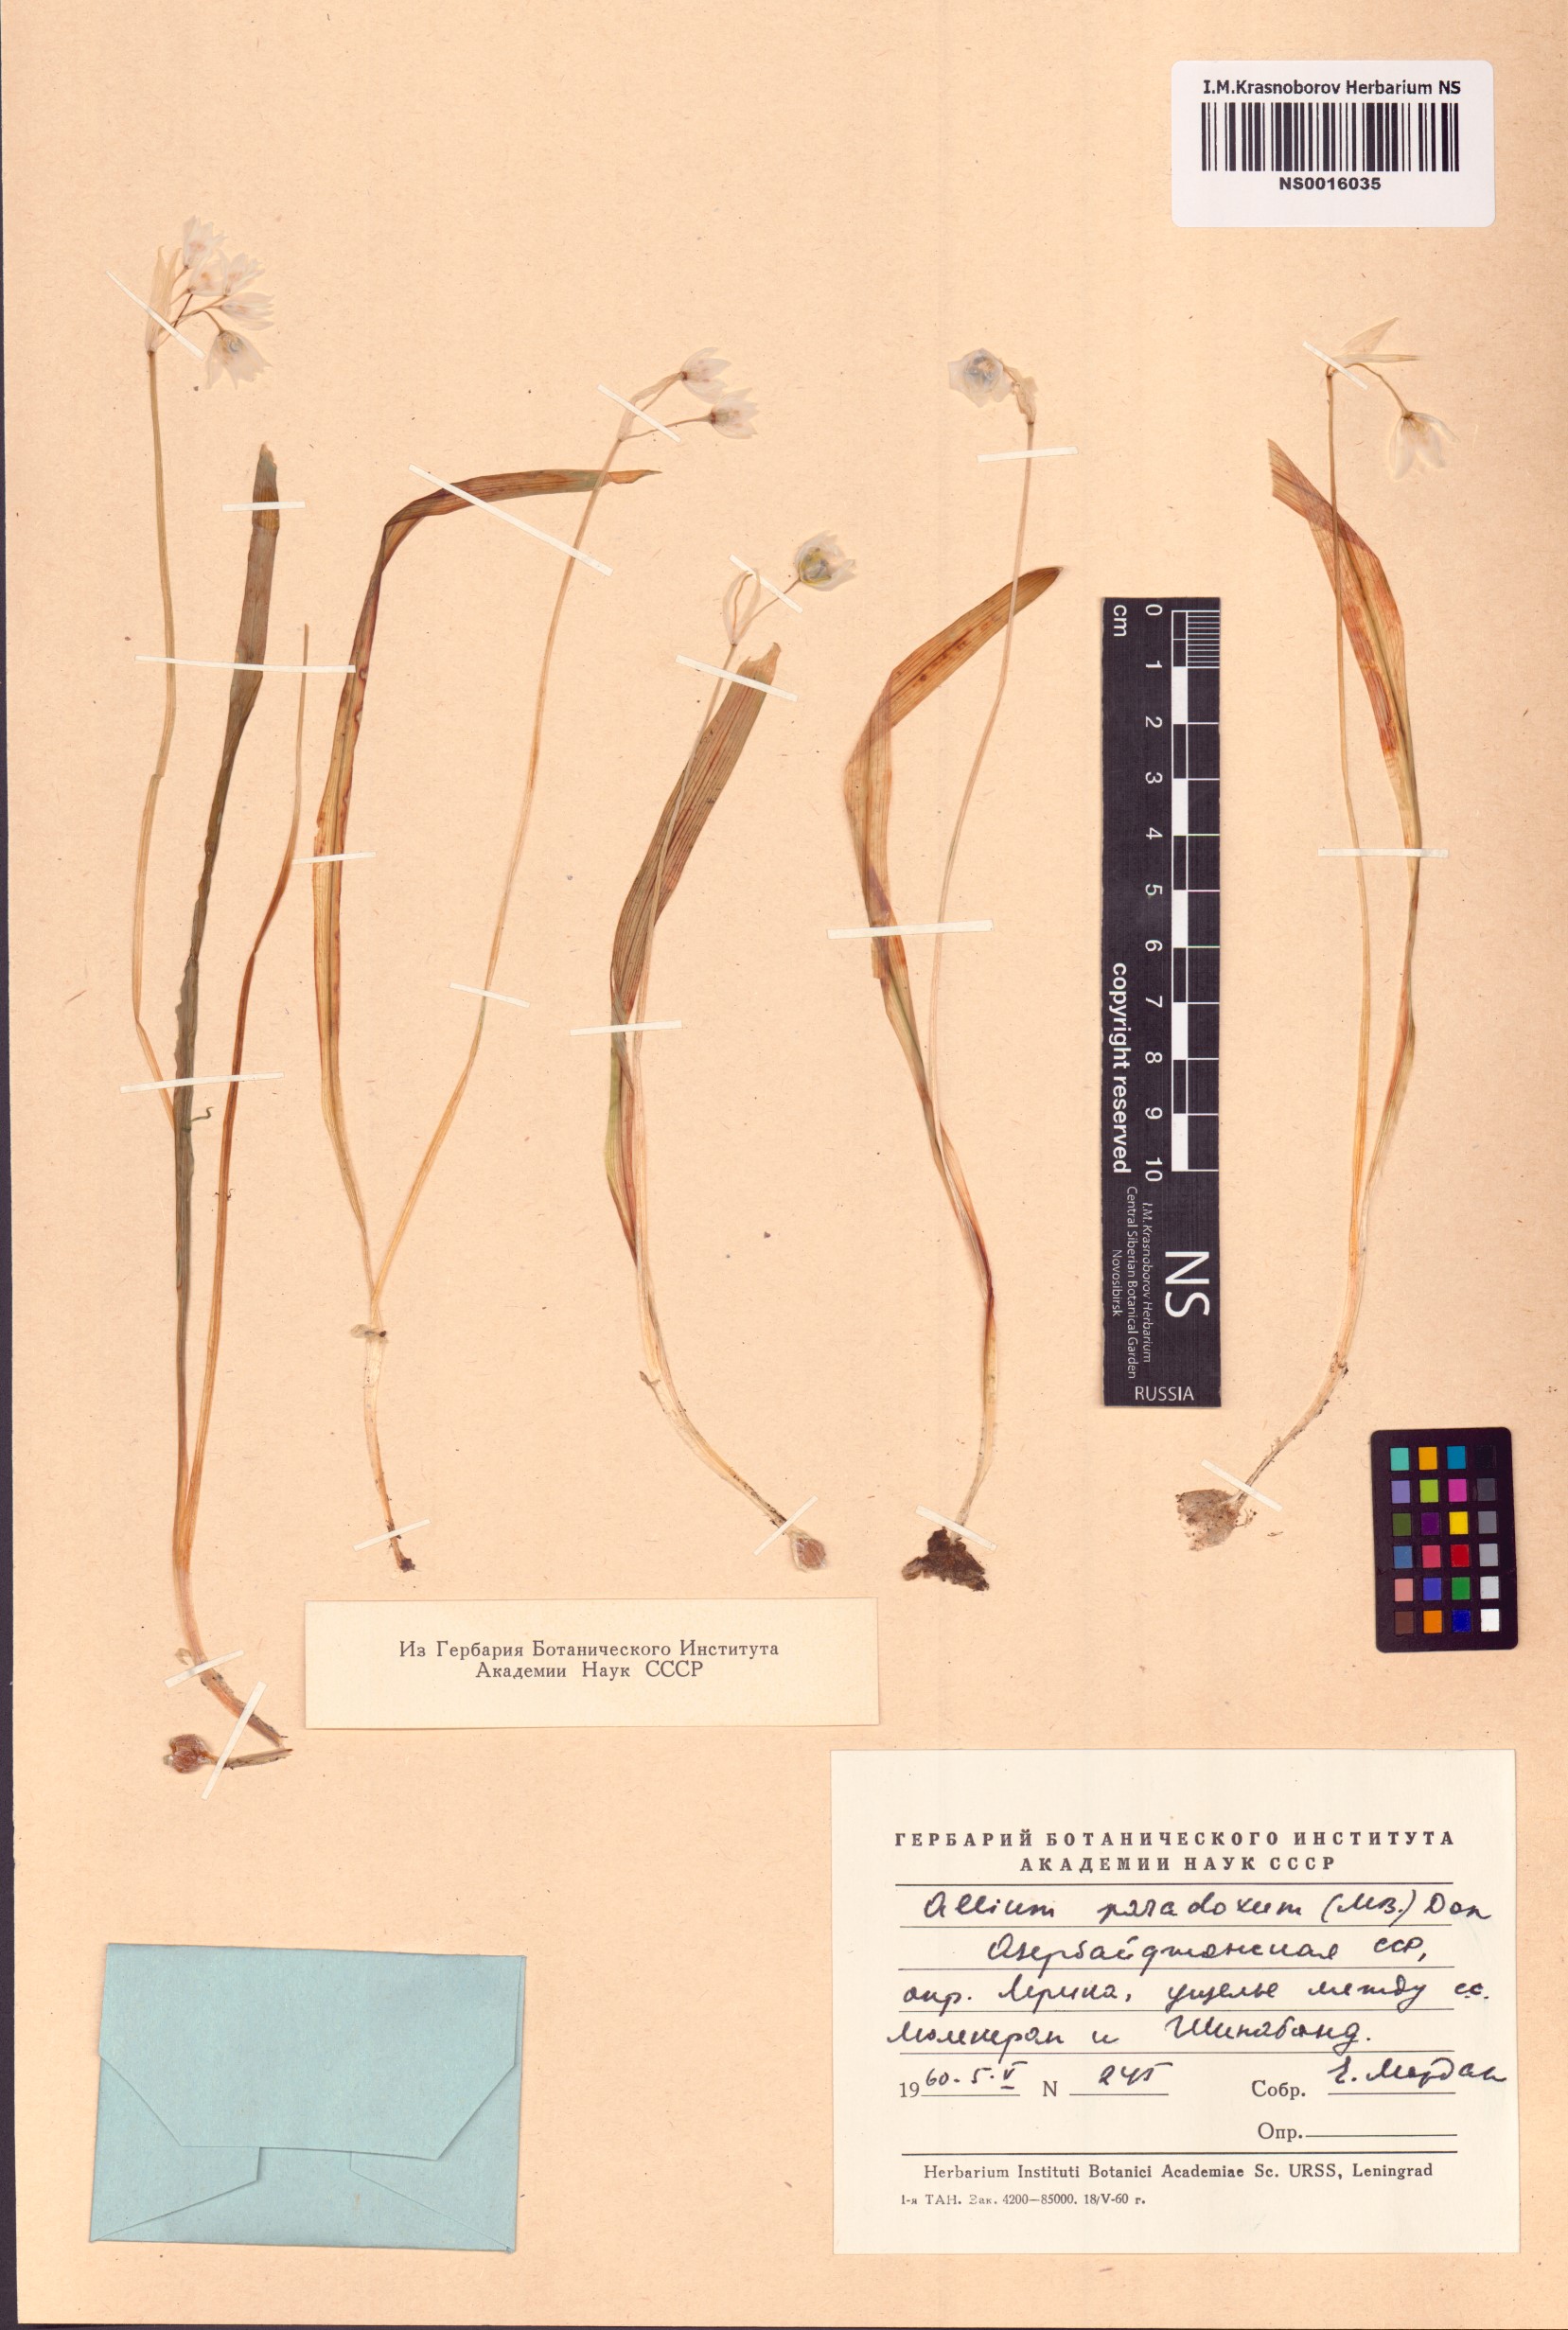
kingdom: Plantae
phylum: Tracheophyta
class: Liliopsida
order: Asparagales
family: Amaryllidaceae
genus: Allium
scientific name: Allium paradoxum
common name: Few-flowered garlic
